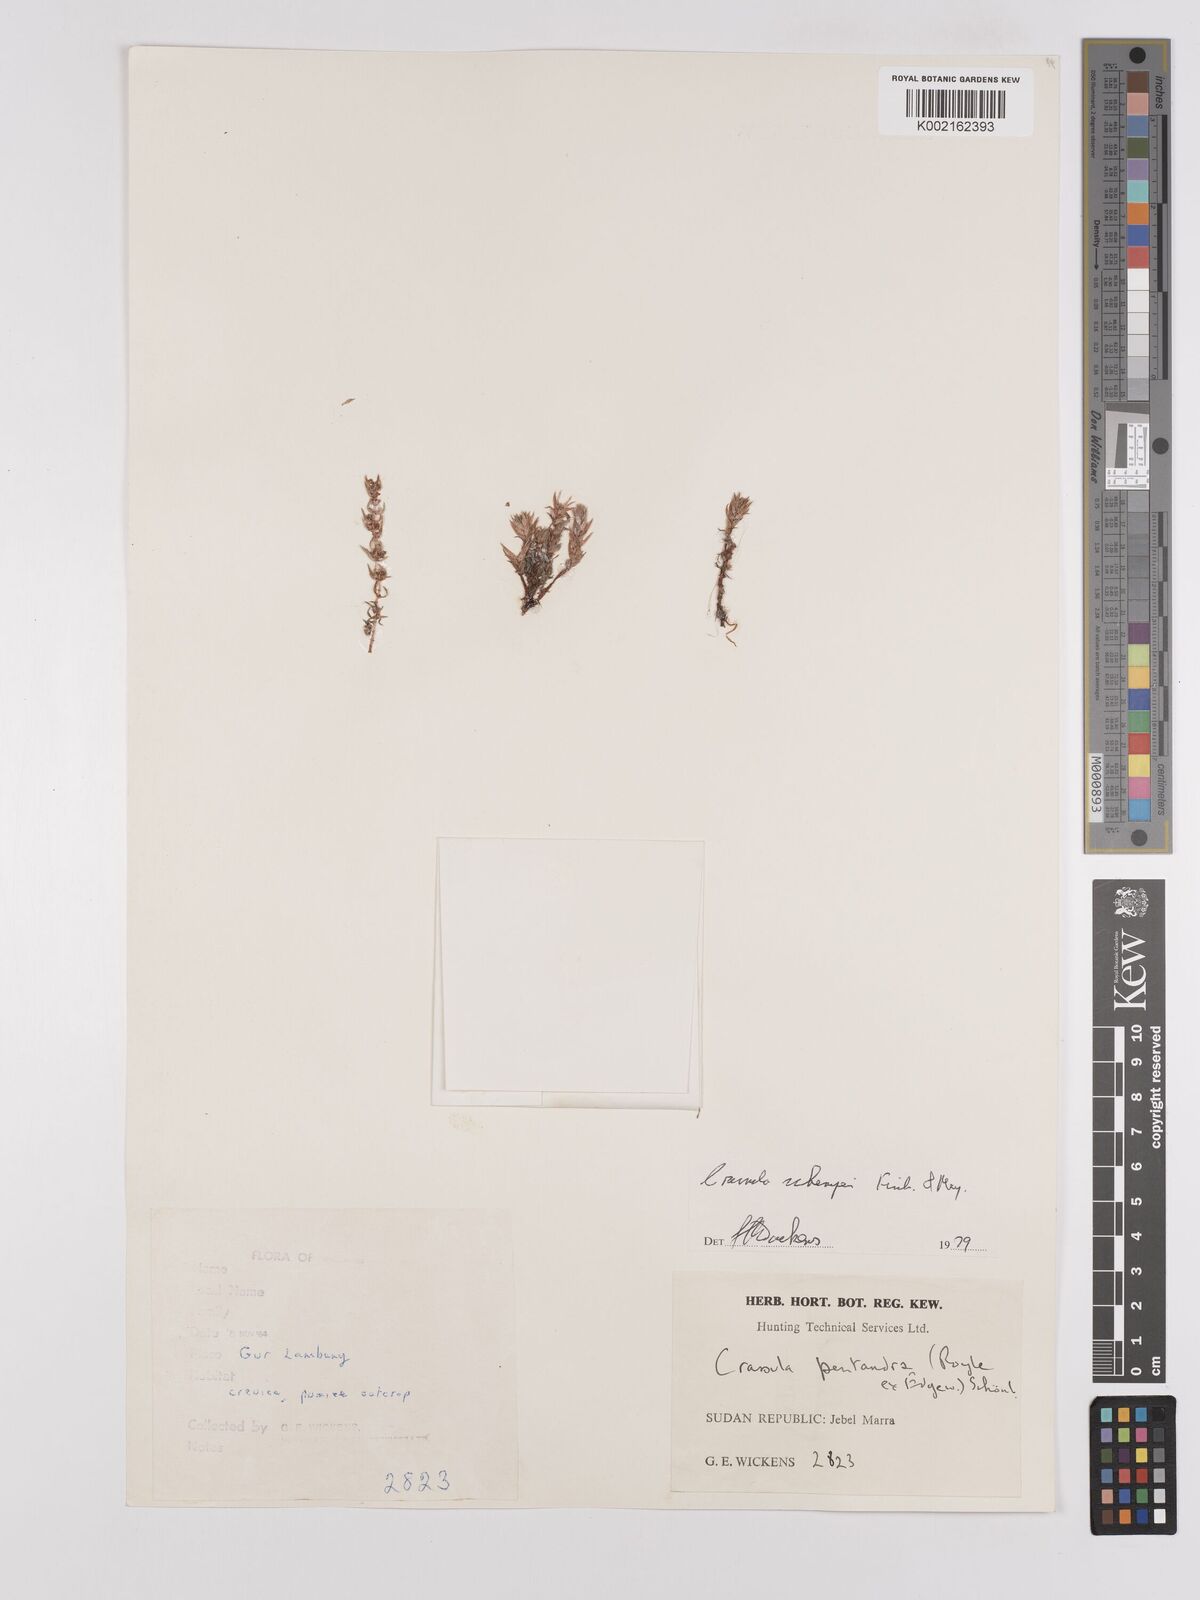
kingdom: Plantae
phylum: Tracheophyta
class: Magnoliopsida
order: Saxifragales
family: Crassulaceae
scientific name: Crassulaceae
